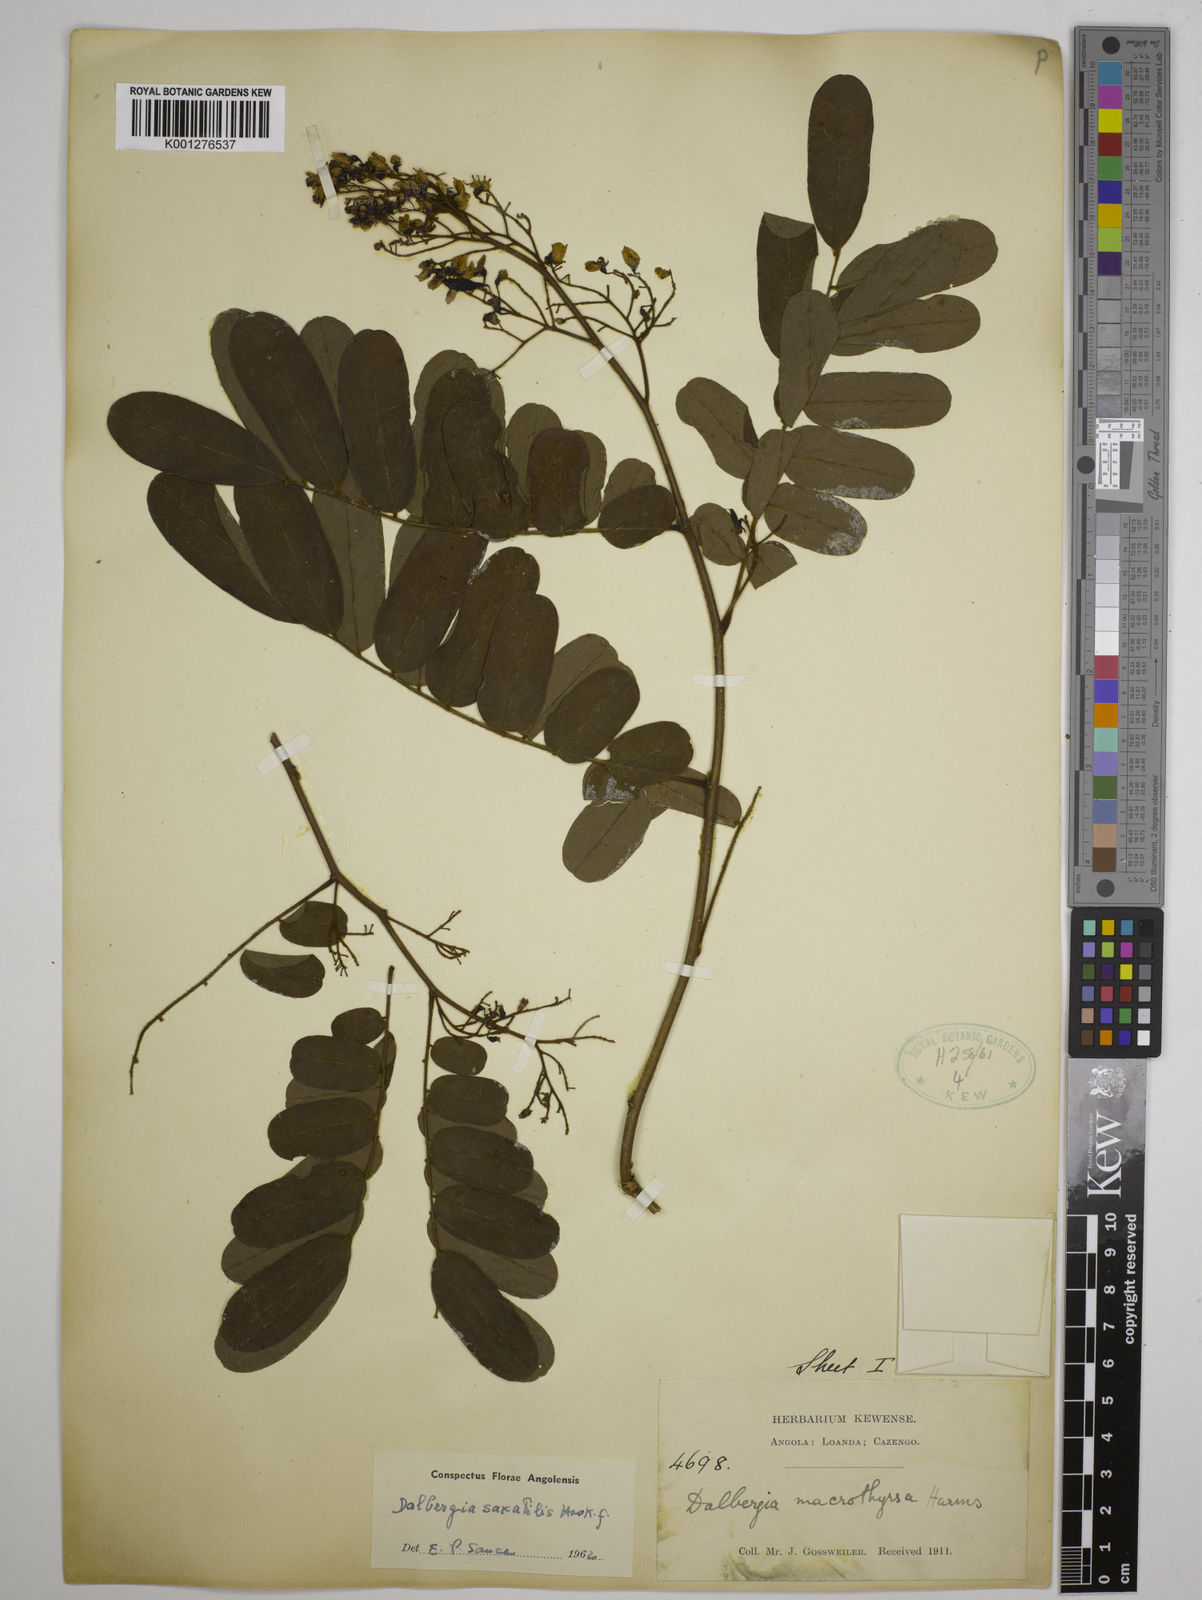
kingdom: Plantae
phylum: Tracheophyta
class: Magnoliopsida
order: Fabales
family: Fabaceae
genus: Dalbergia
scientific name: Dalbergia saxatilis
